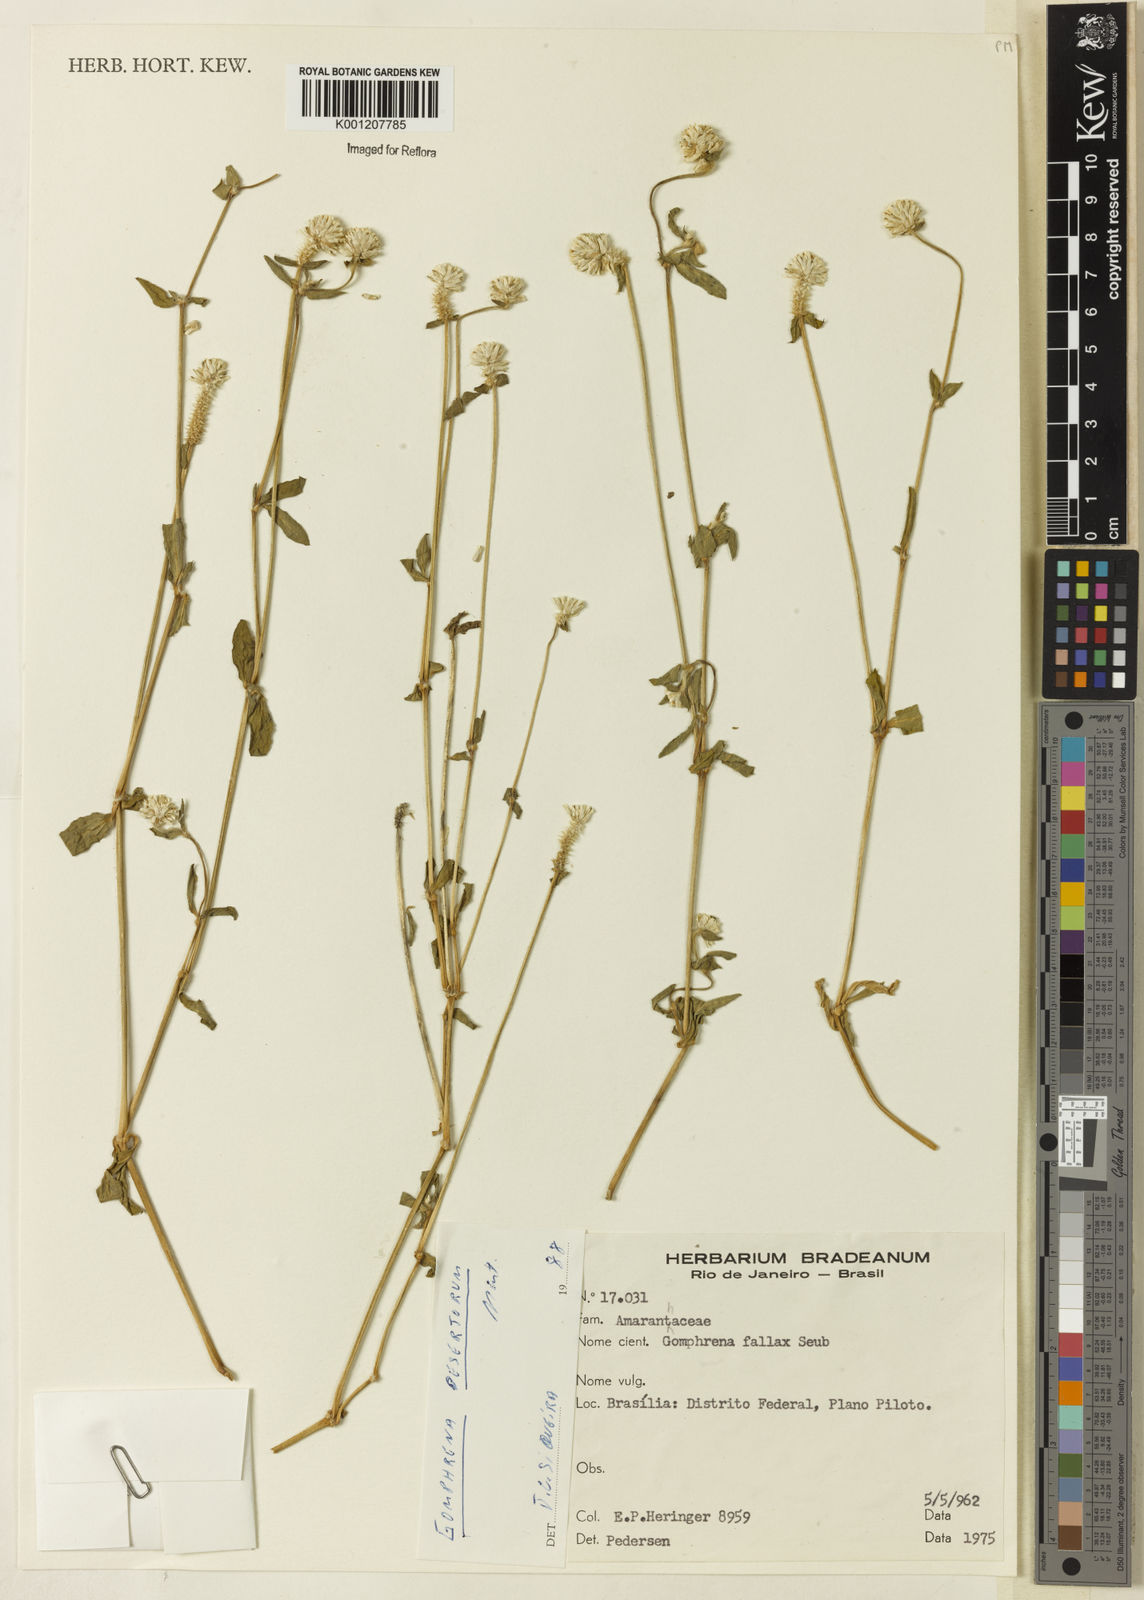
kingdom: Plantae
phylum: Tracheophyta
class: Magnoliopsida
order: Caryophyllales
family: Amaranthaceae
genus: Gomphrena
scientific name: Gomphrena celosioides
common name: Gomphrena-weed
